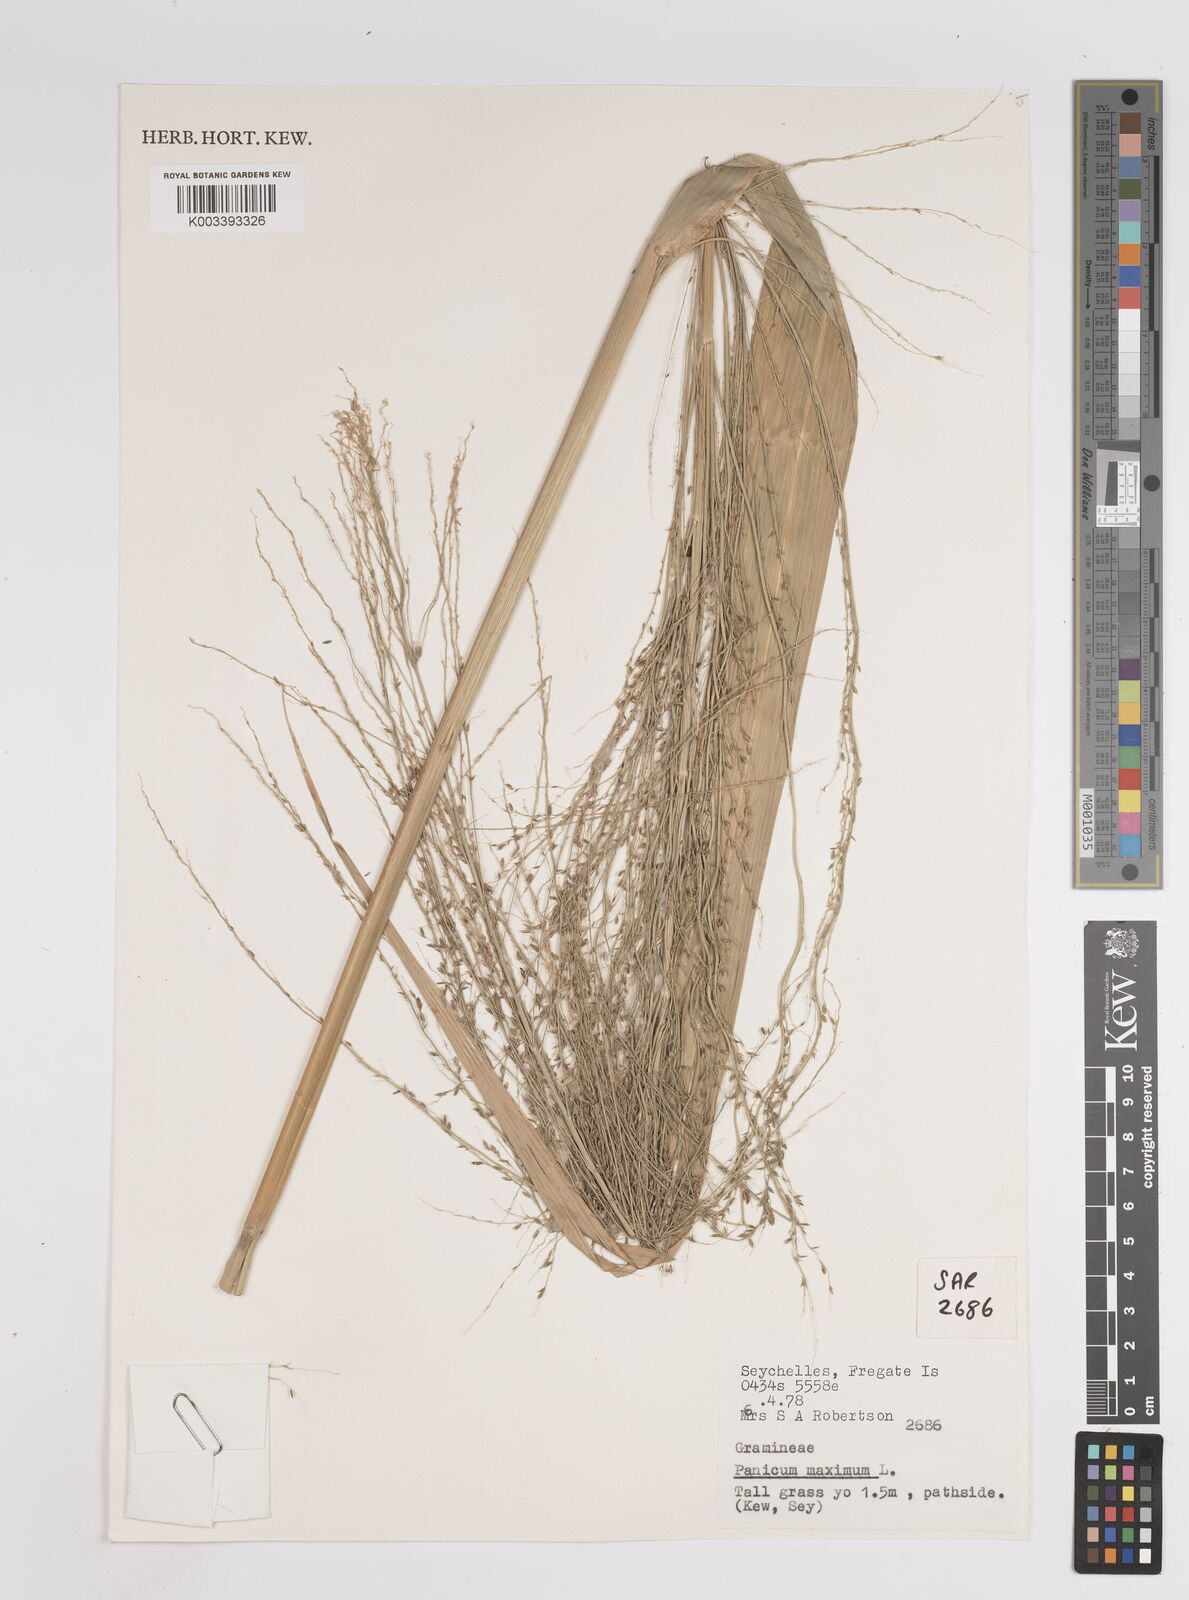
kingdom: Plantae
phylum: Tracheophyta
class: Liliopsida
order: Poales
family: Poaceae
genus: Megathyrsus
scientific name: Megathyrsus maximus
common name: Guineagrass
